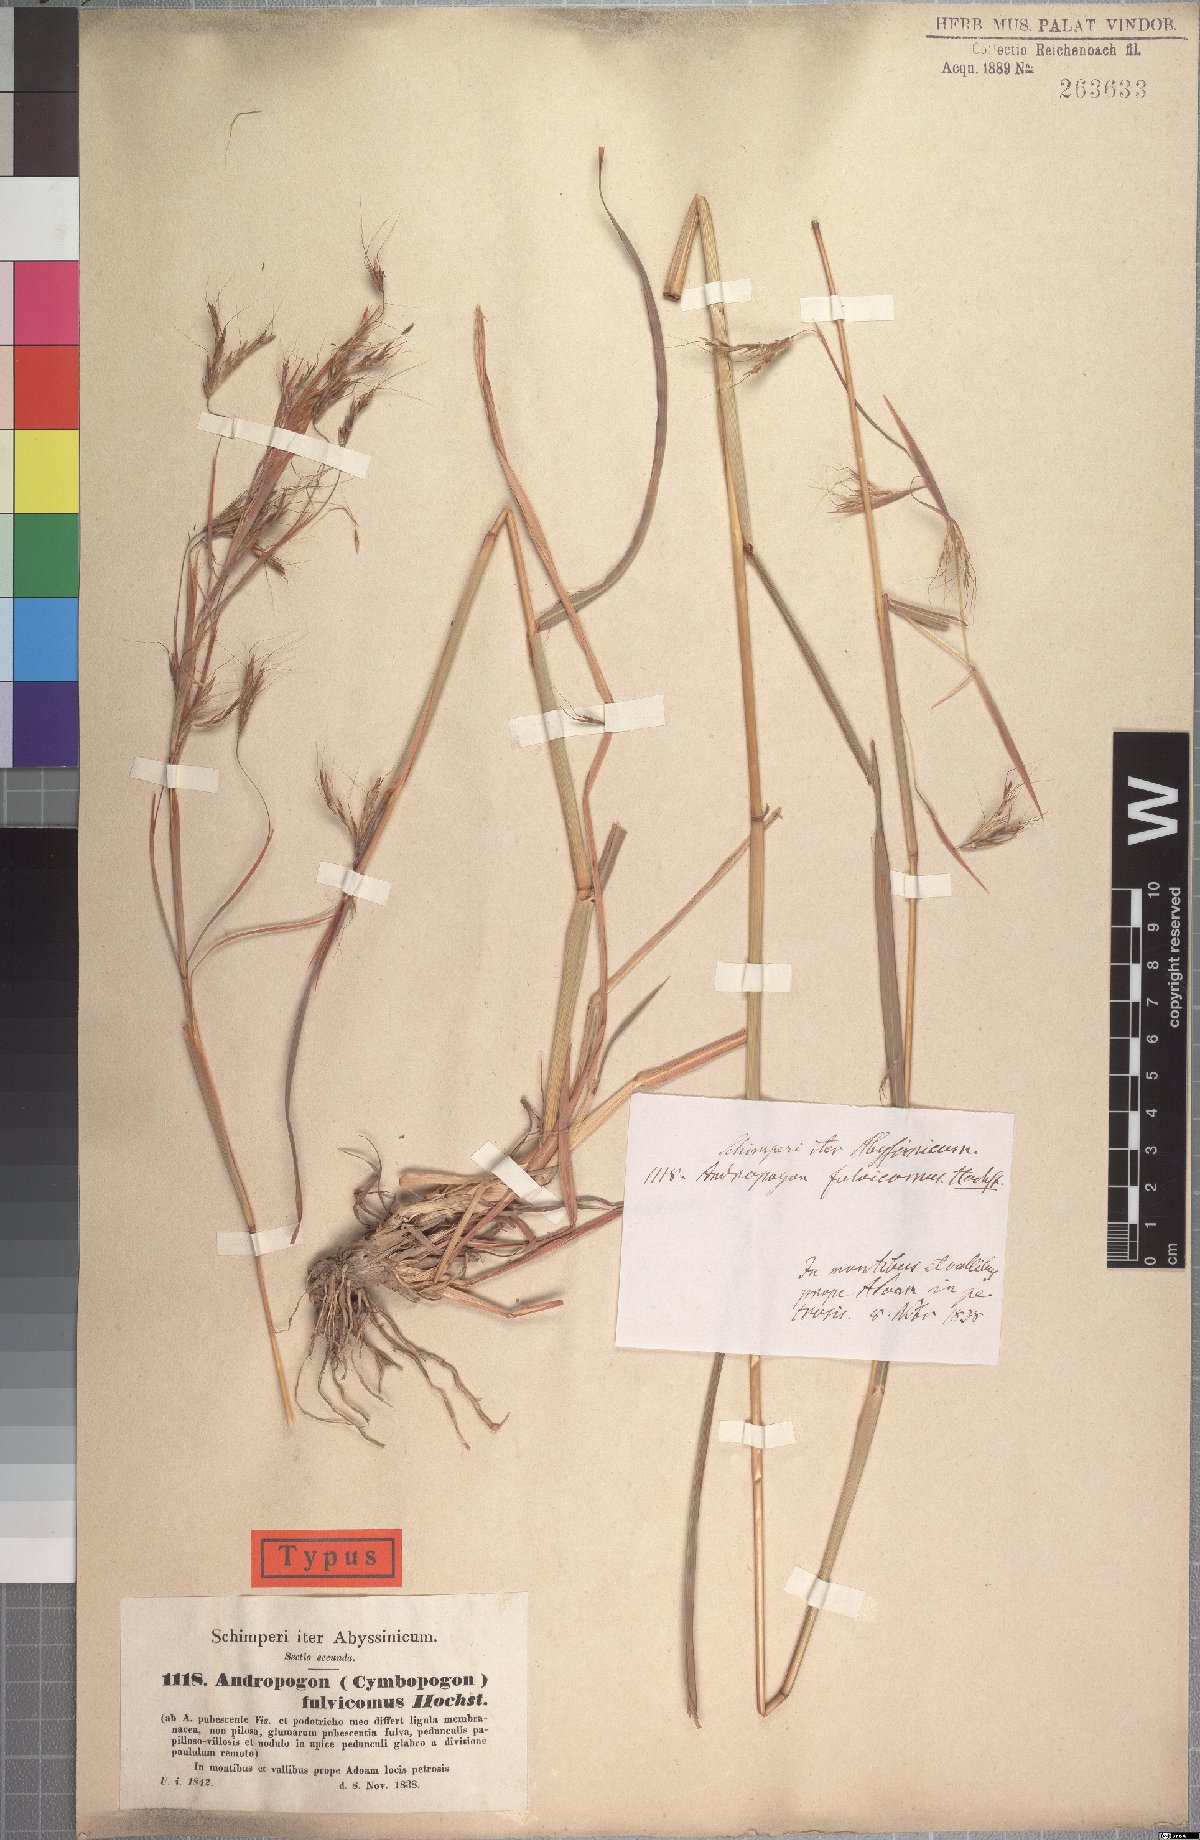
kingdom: Plantae
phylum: Tracheophyta
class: Liliopsida
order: Poales
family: Poaceae
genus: Hyparrhenia
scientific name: Hyparrhenia rufa
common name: Jaraguagrass
